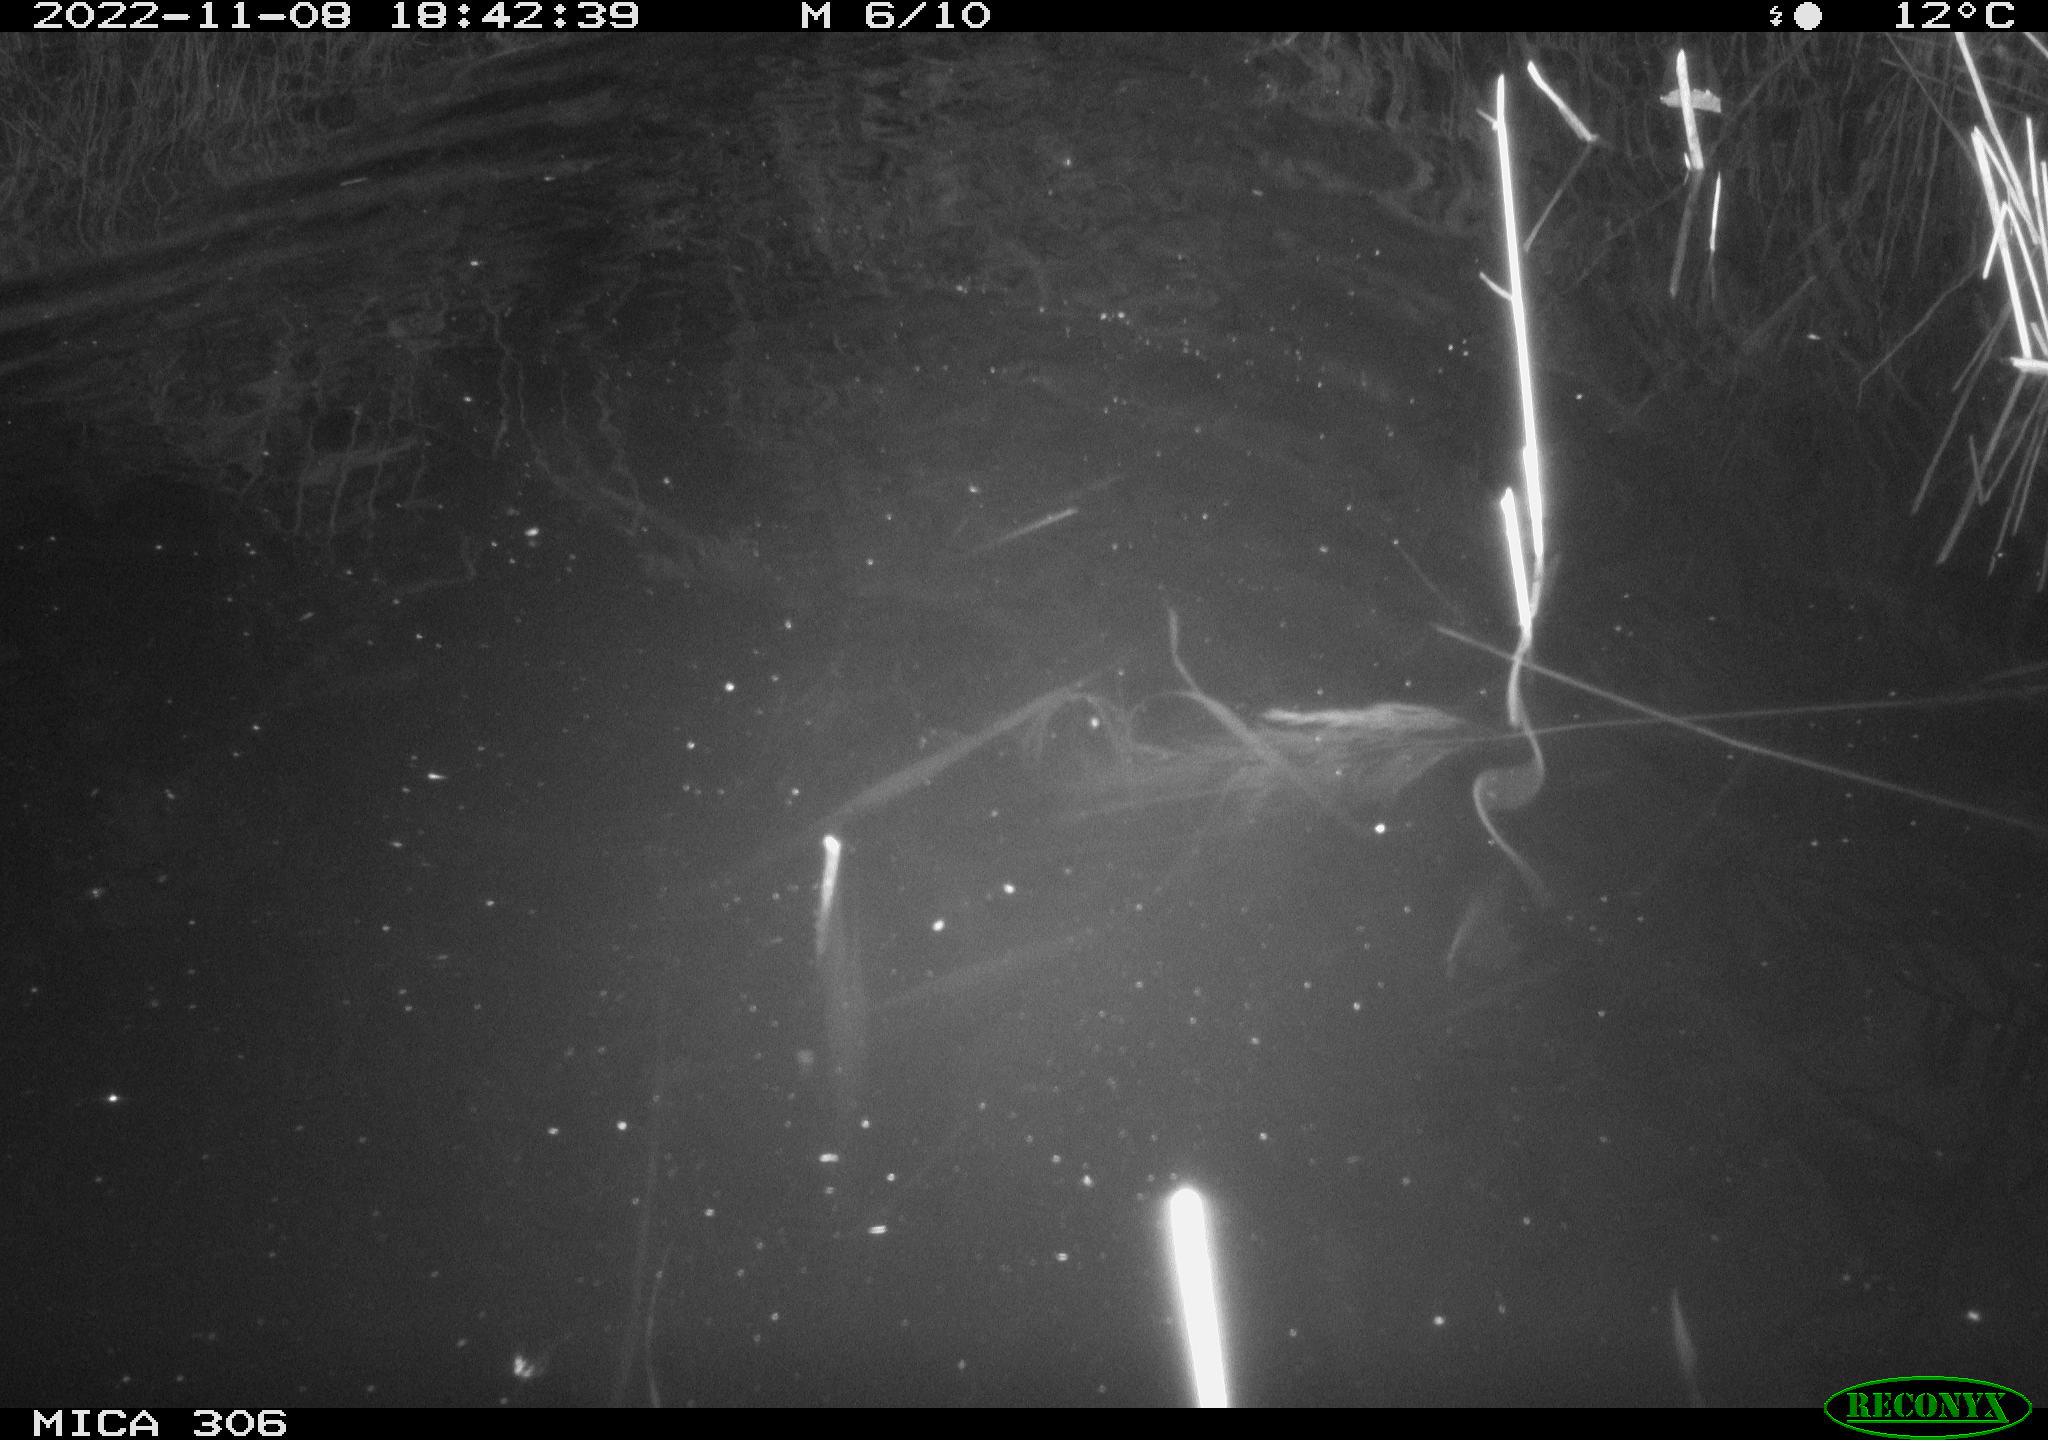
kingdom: Animalia
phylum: Chordata
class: Mammalia
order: Rodentia
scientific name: Rodentia
